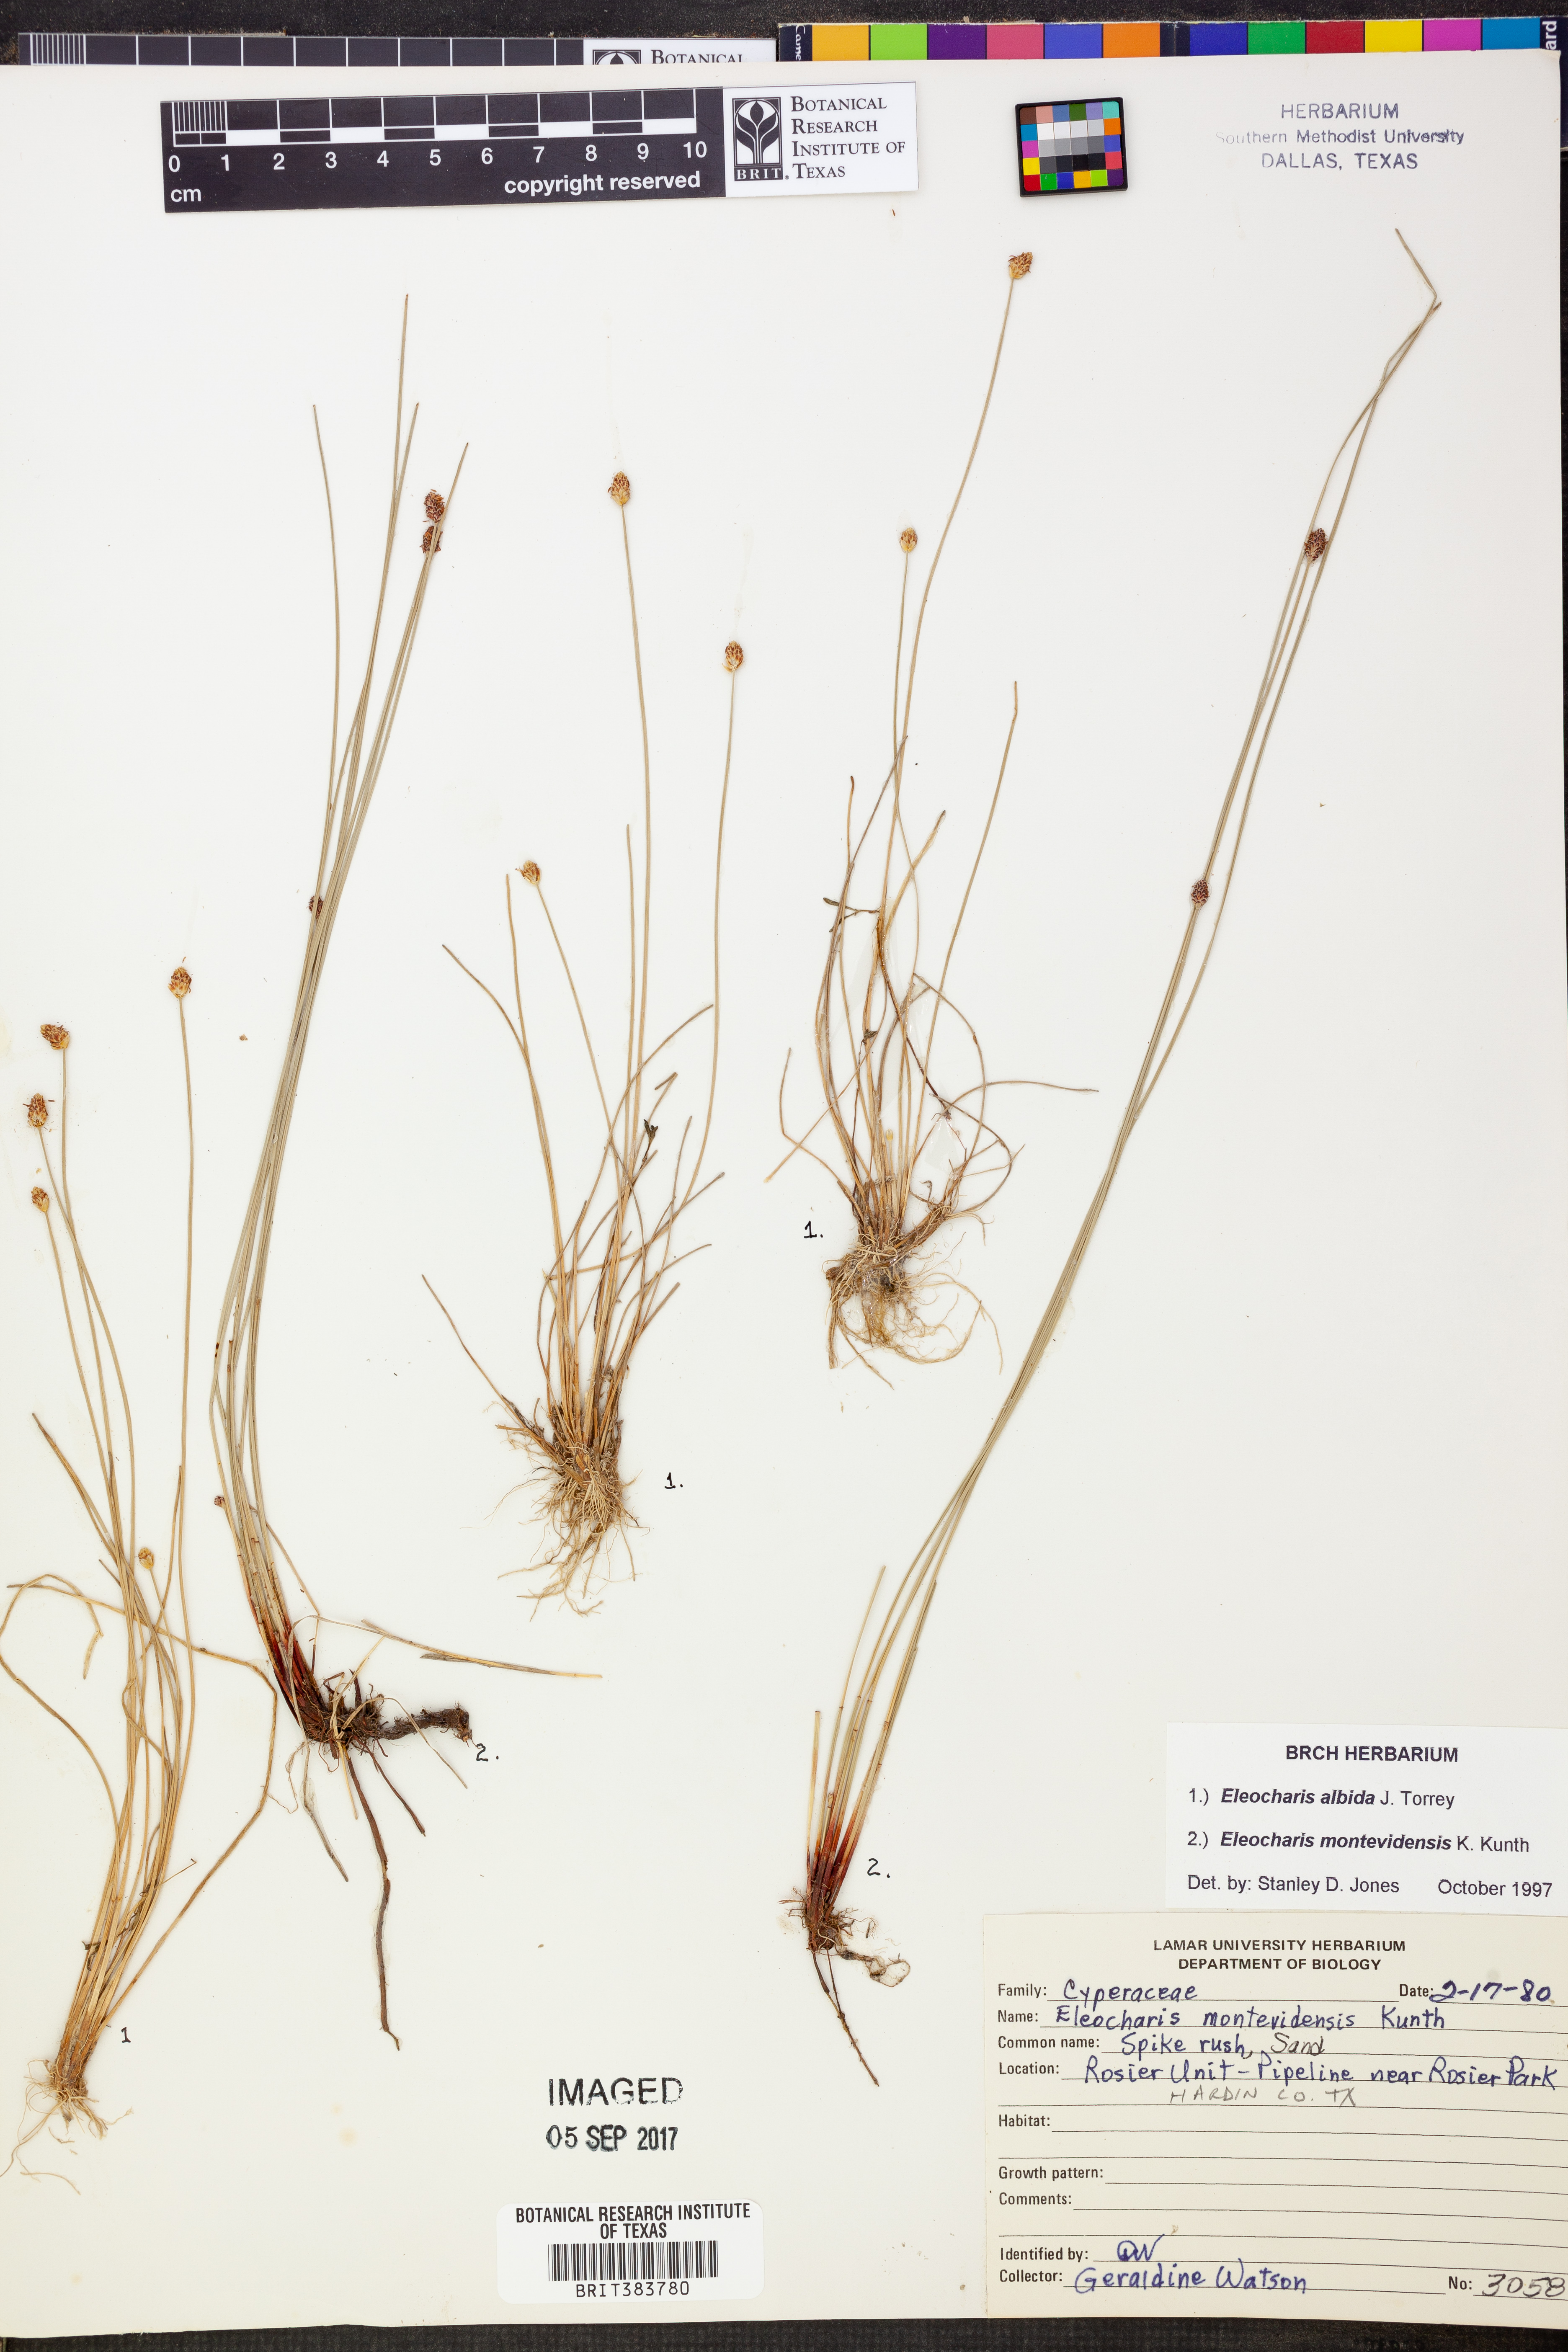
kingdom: Plantae
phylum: Tracheophyta
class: Liliopsida
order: Poales
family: Cyperaceae
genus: Eleocharis
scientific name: Eleocharis albida
